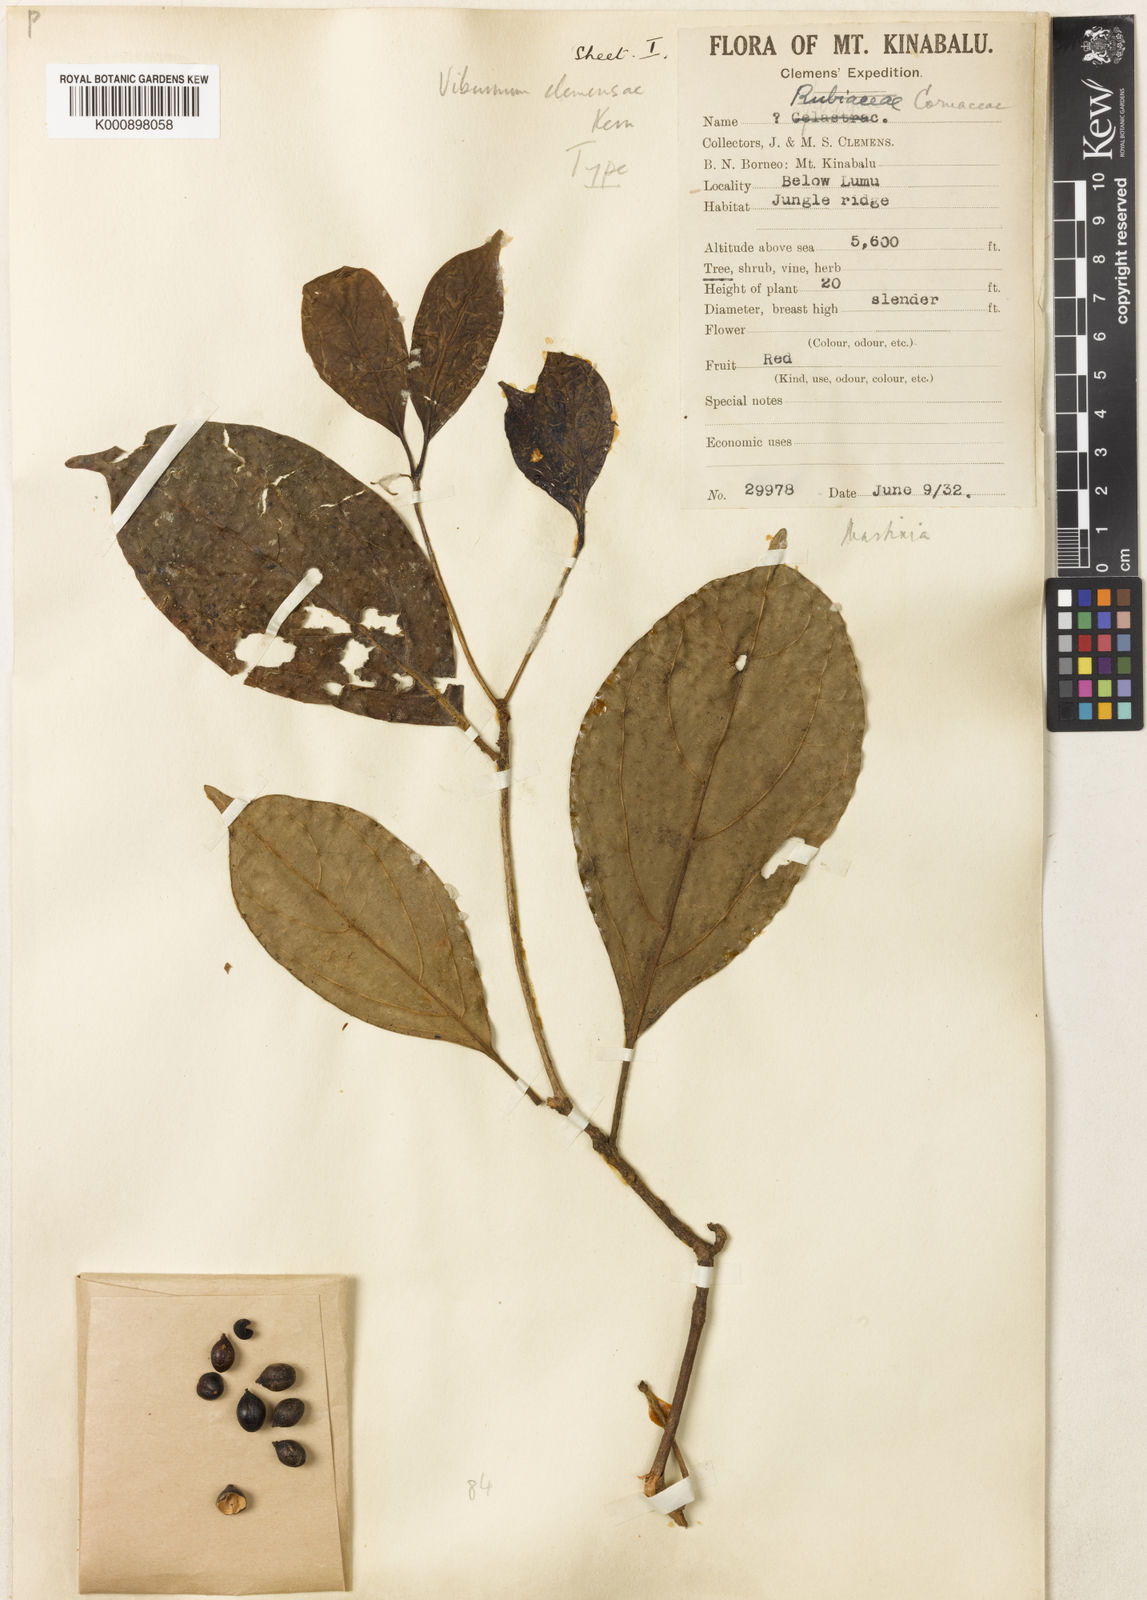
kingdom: Plantae
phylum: Tracheophyta
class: Magnoliopsida
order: Dipsacales
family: Viburnaceae
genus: Viburnum
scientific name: Viburnum clemensiae
